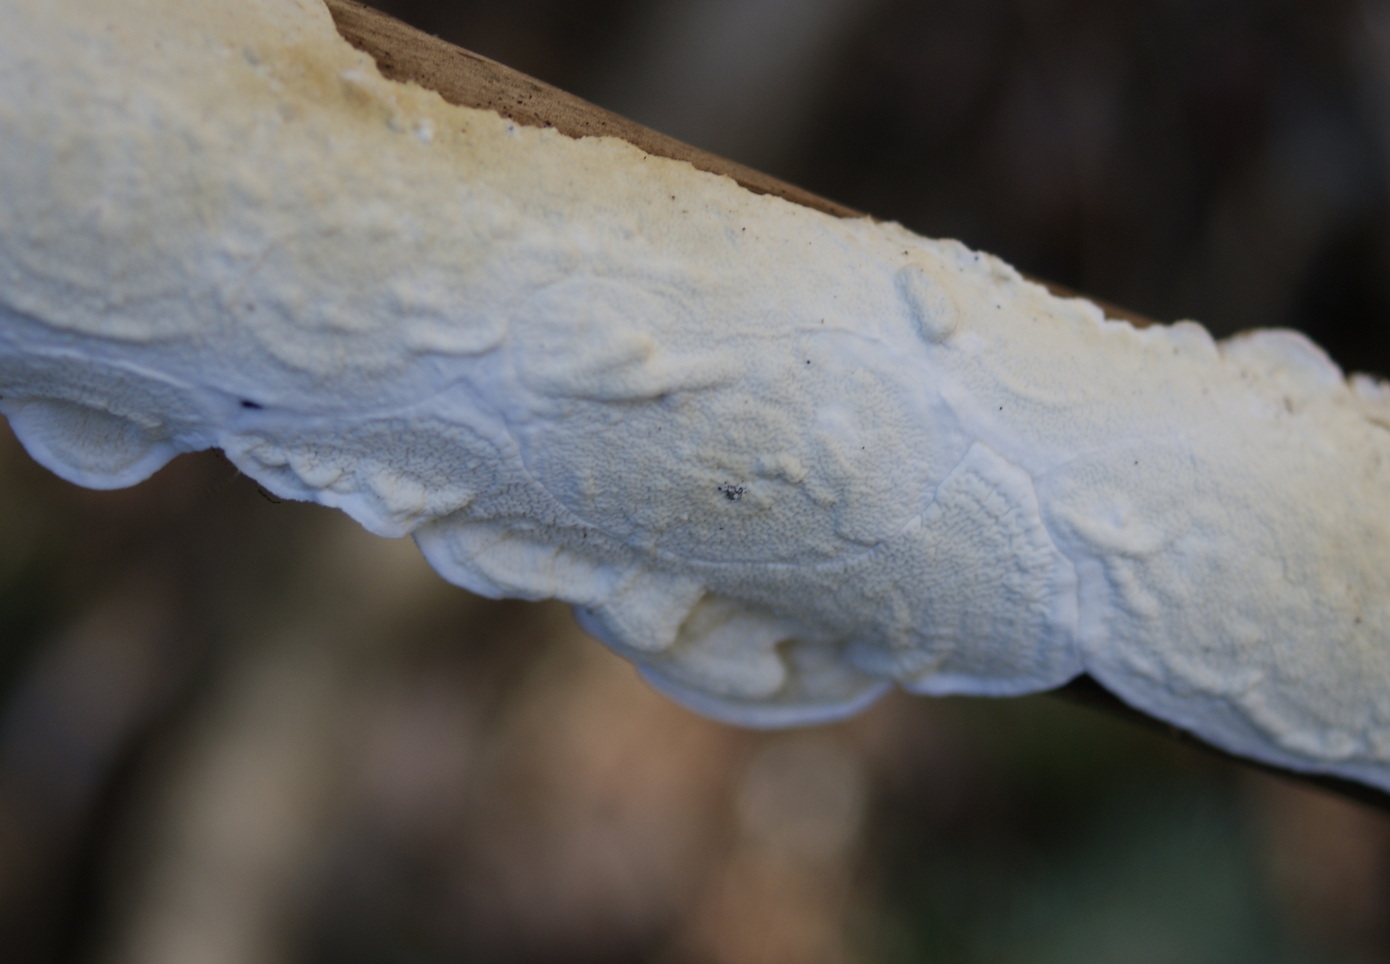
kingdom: Fungi
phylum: Basidiomycota
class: Agaricomycetes
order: Polyporales
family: Irpicaceae
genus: Byssomerulius
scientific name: Byssomerulius corium
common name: læder-åresvamp
